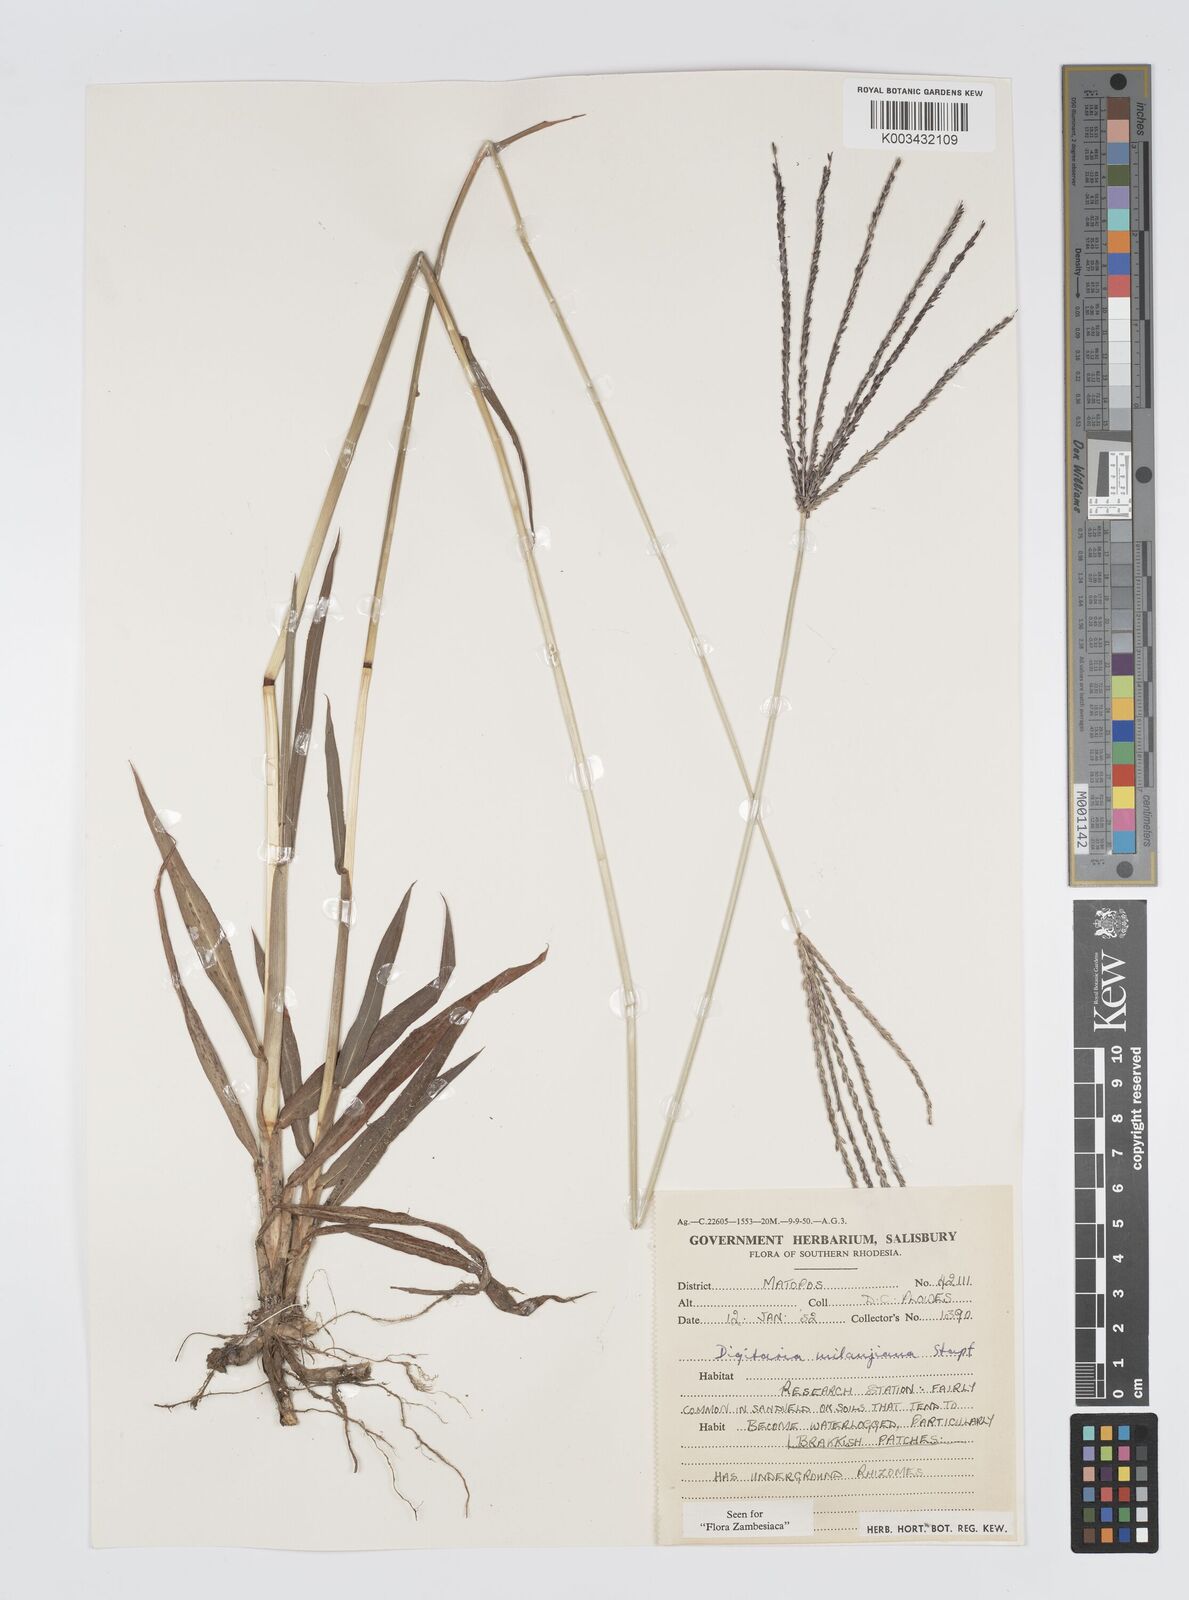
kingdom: Plantae
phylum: Tracheophyta
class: Liliopsida
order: Poales
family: Poaceae
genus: Digitaria
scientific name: Digitaria milanjiana
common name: Madagascar crabgrass
